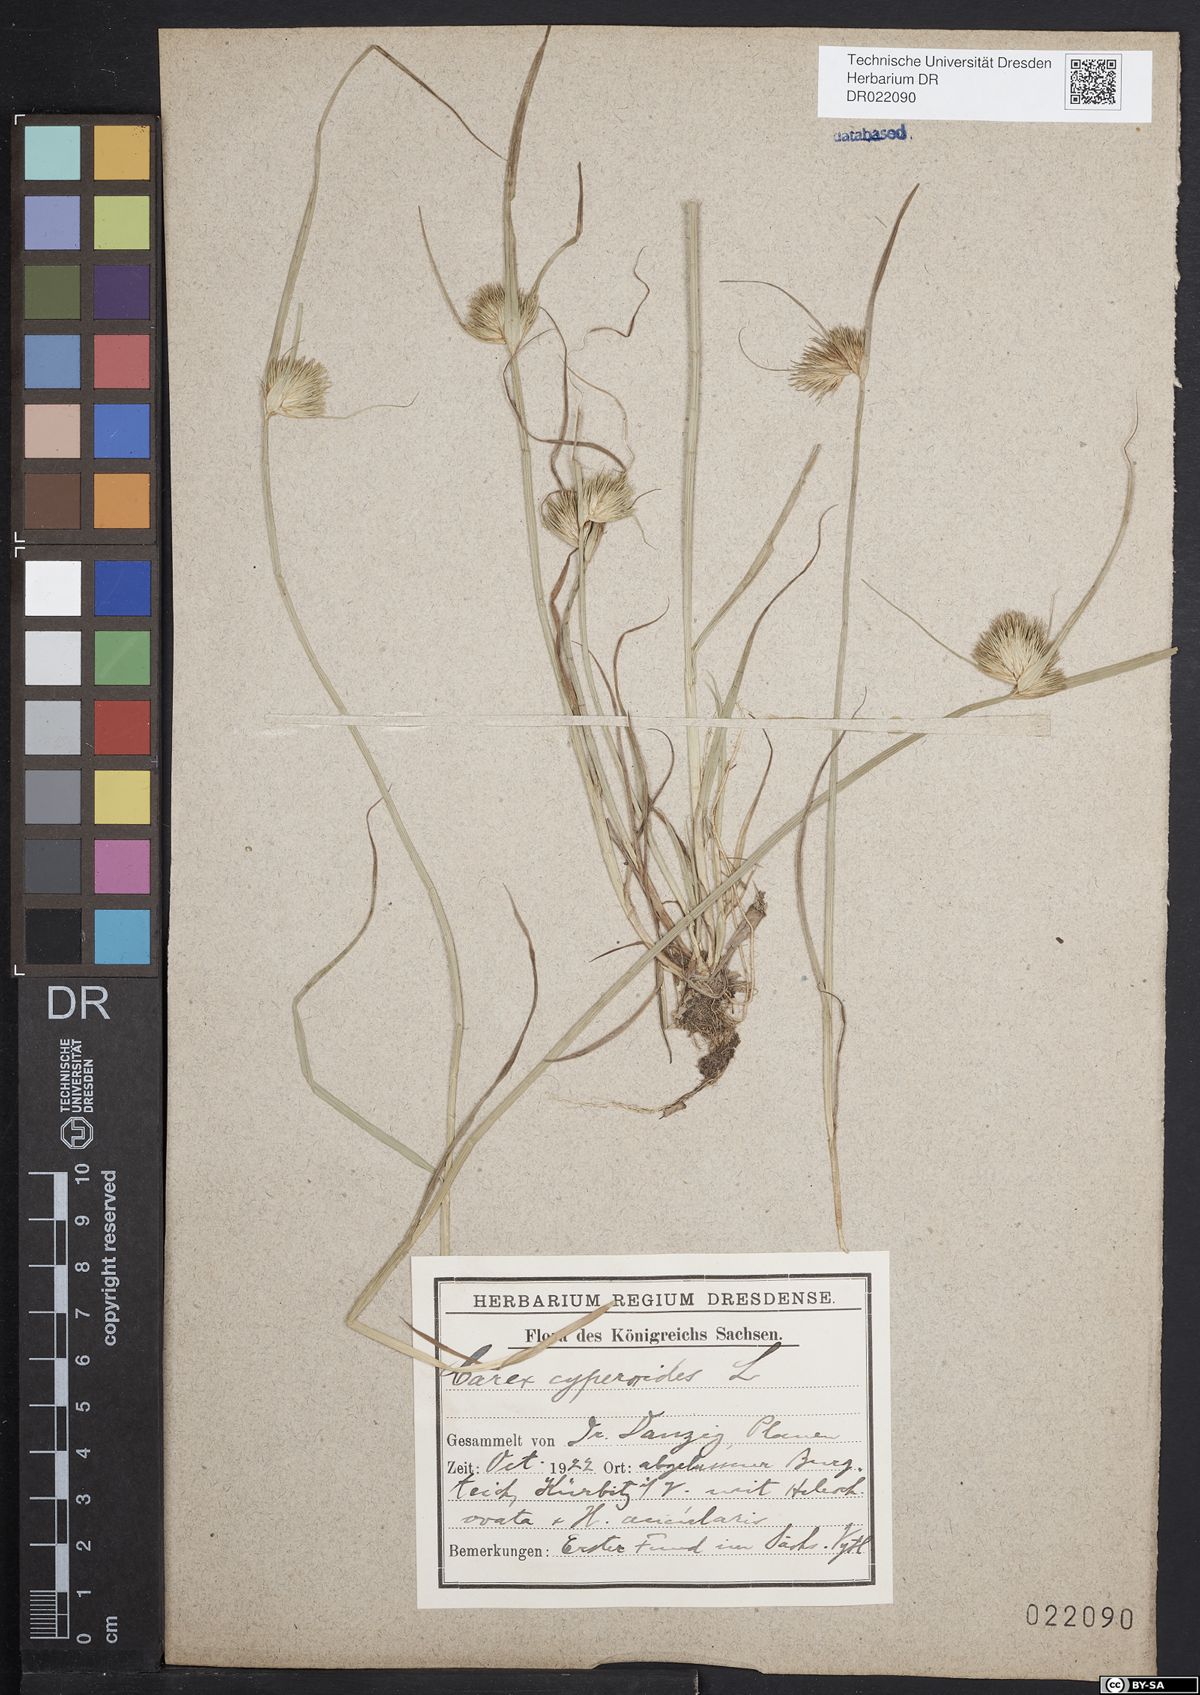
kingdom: Plantae
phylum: Tracheophyta
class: Liliopsida
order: Poales
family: Cyperaceae
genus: Carex
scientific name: Carex bohemica
